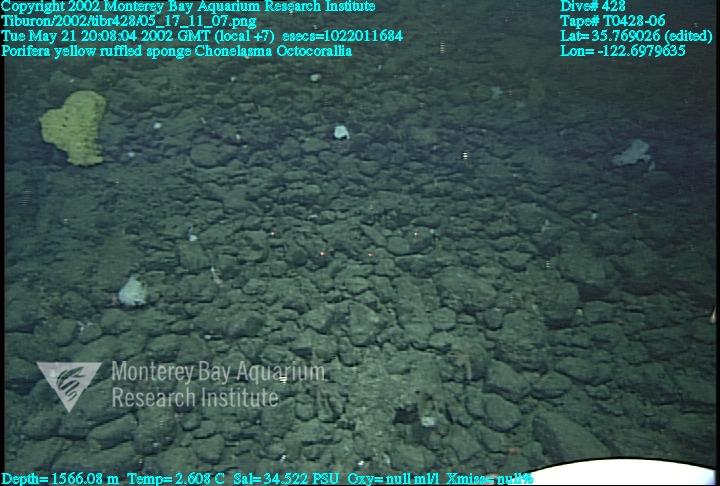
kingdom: Animalia
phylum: Porifera
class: Hexactinellida
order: Sceptrulophora
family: Euretidae
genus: Chonelasma
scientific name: Chonelasma
